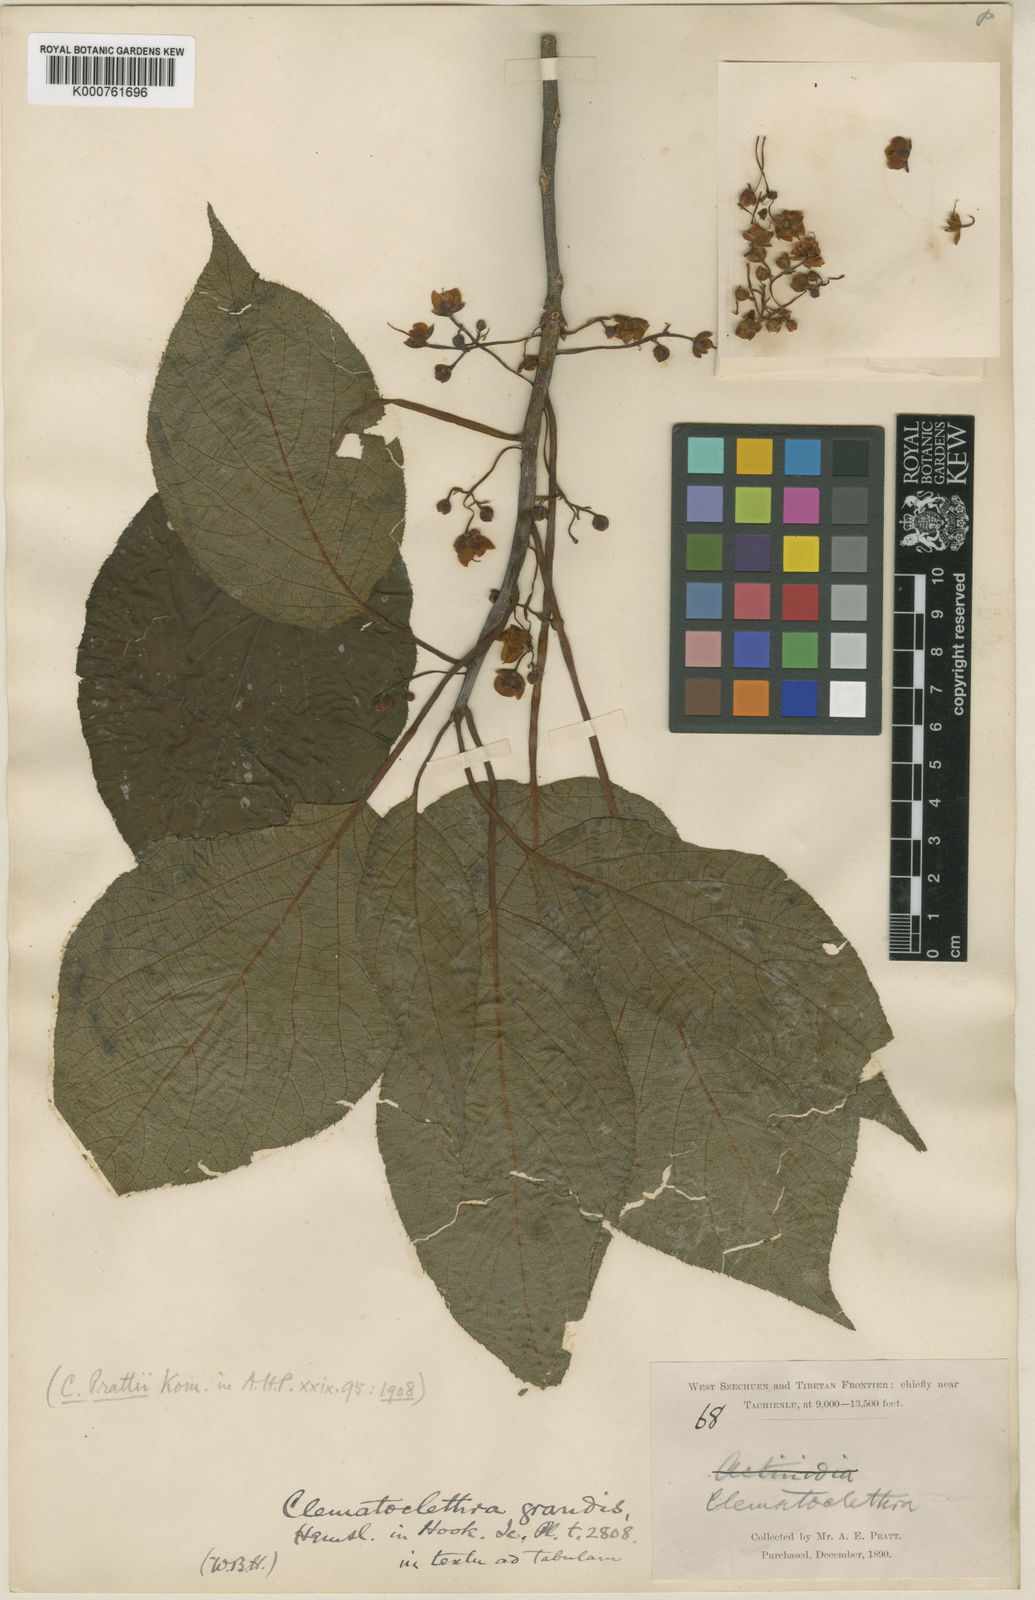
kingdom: Plantae
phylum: Tracheophyta
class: Magnoliopsida
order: Ericales
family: Actinidiaceae
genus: Clematoclethra
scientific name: Clematoclethra scandens
